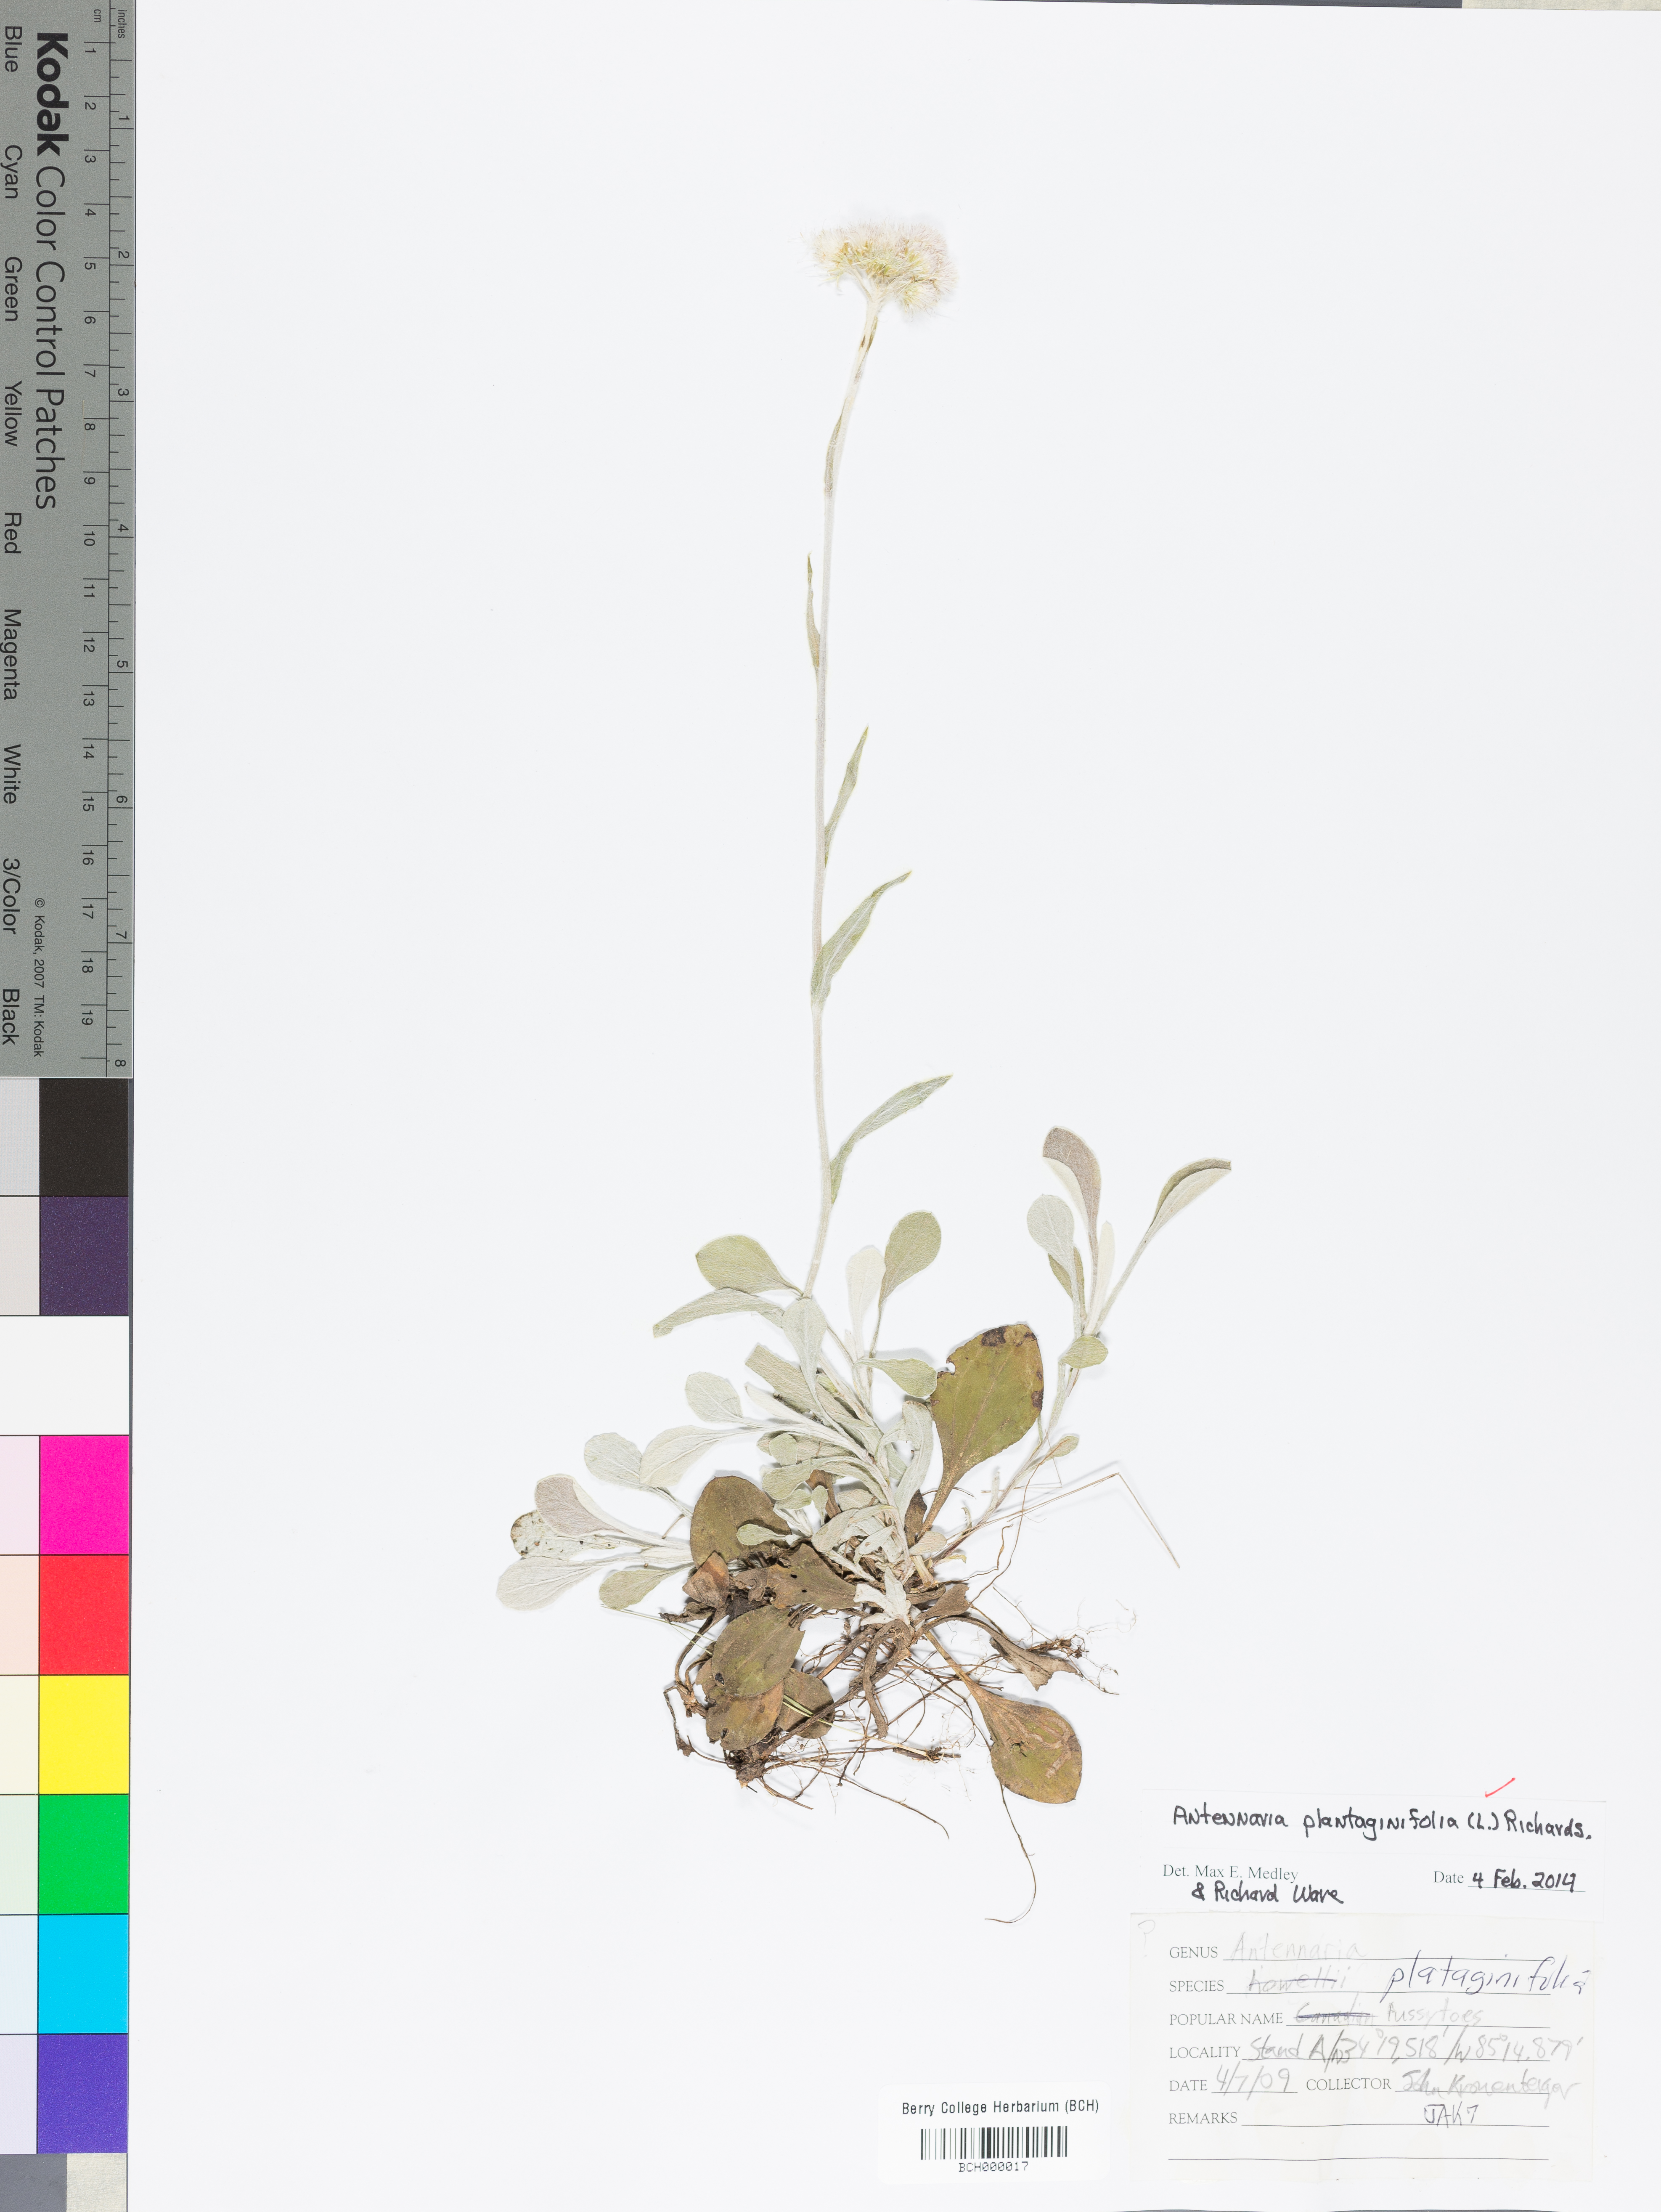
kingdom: Plantae
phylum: Tracheophyta
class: Magnoliopsida
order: Asterales
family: Asteraceae
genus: Antennaria
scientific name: Antennaria plantaginifolia
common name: Plantain-leaved pussytoes
